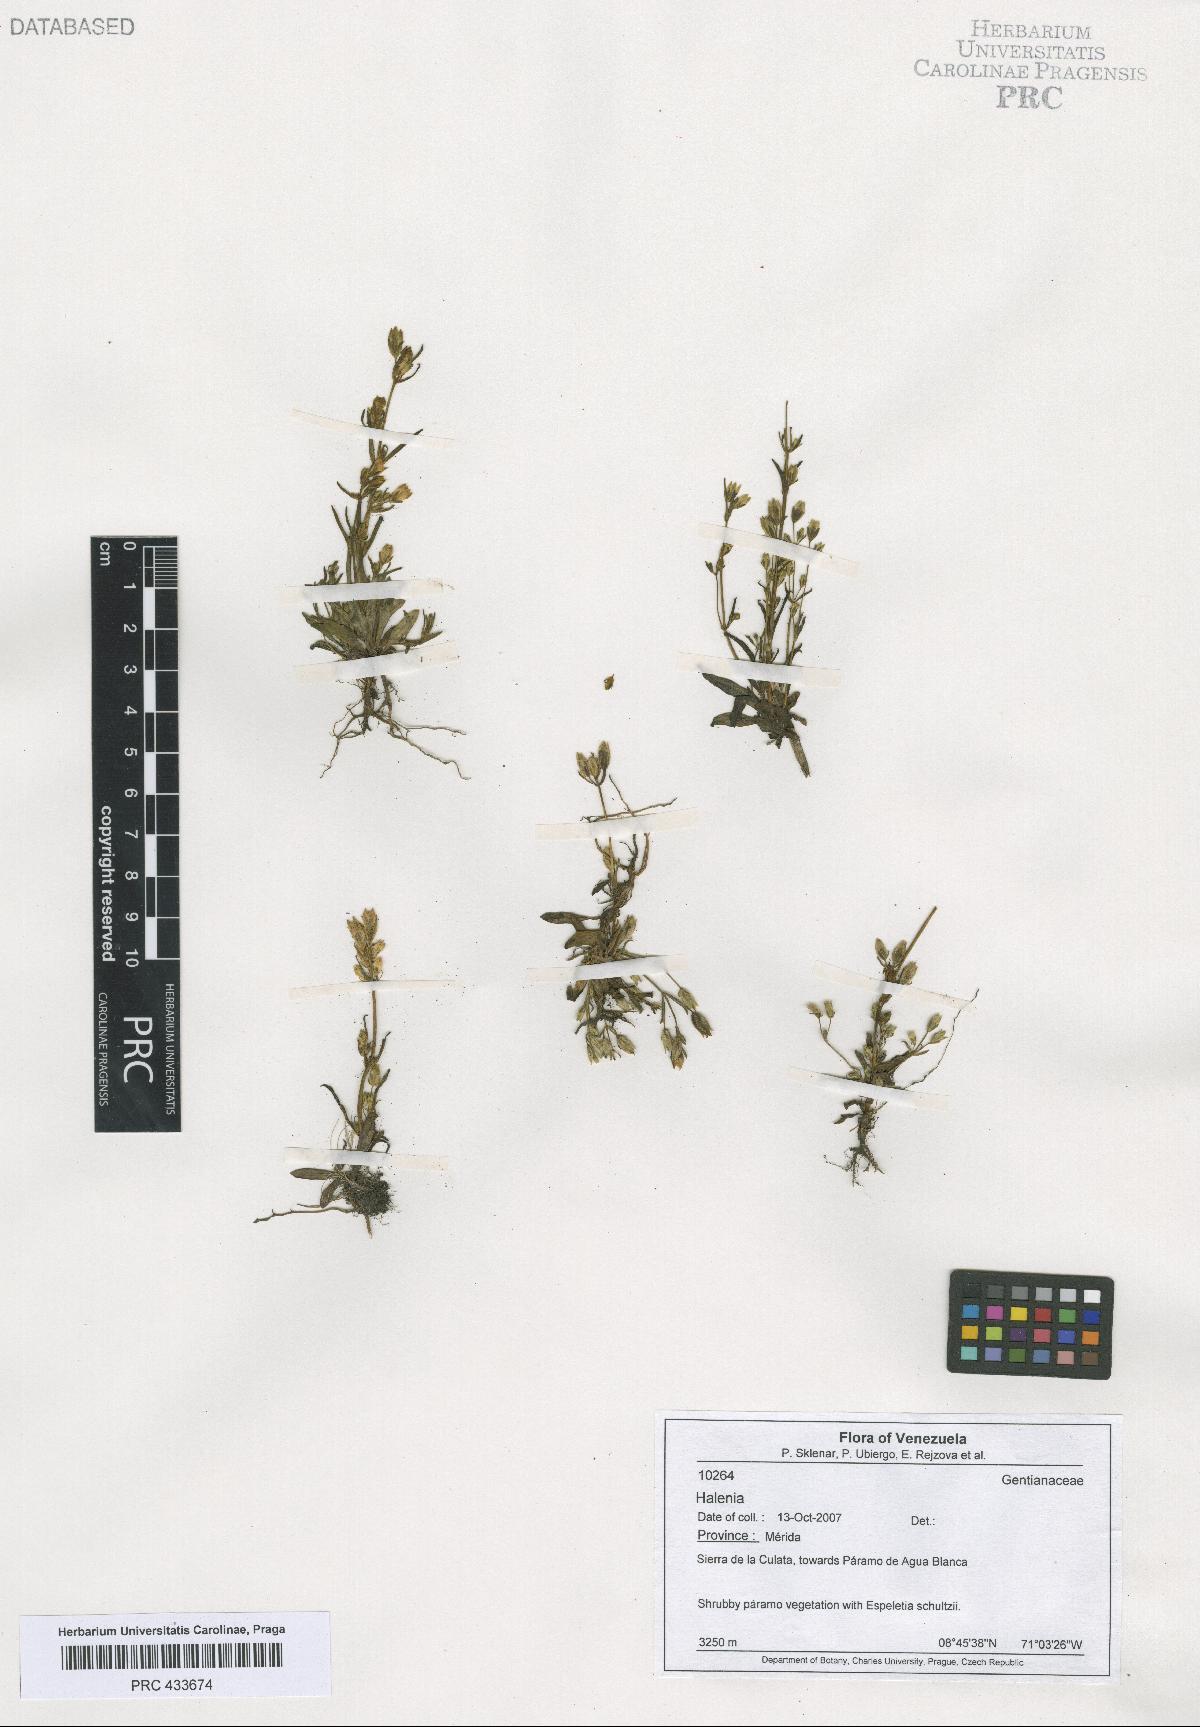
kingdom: Plantae
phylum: Tracheophyta
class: Magnoliopsida
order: Gentianales
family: Gentianaceae
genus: Halenia
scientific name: Halenia
